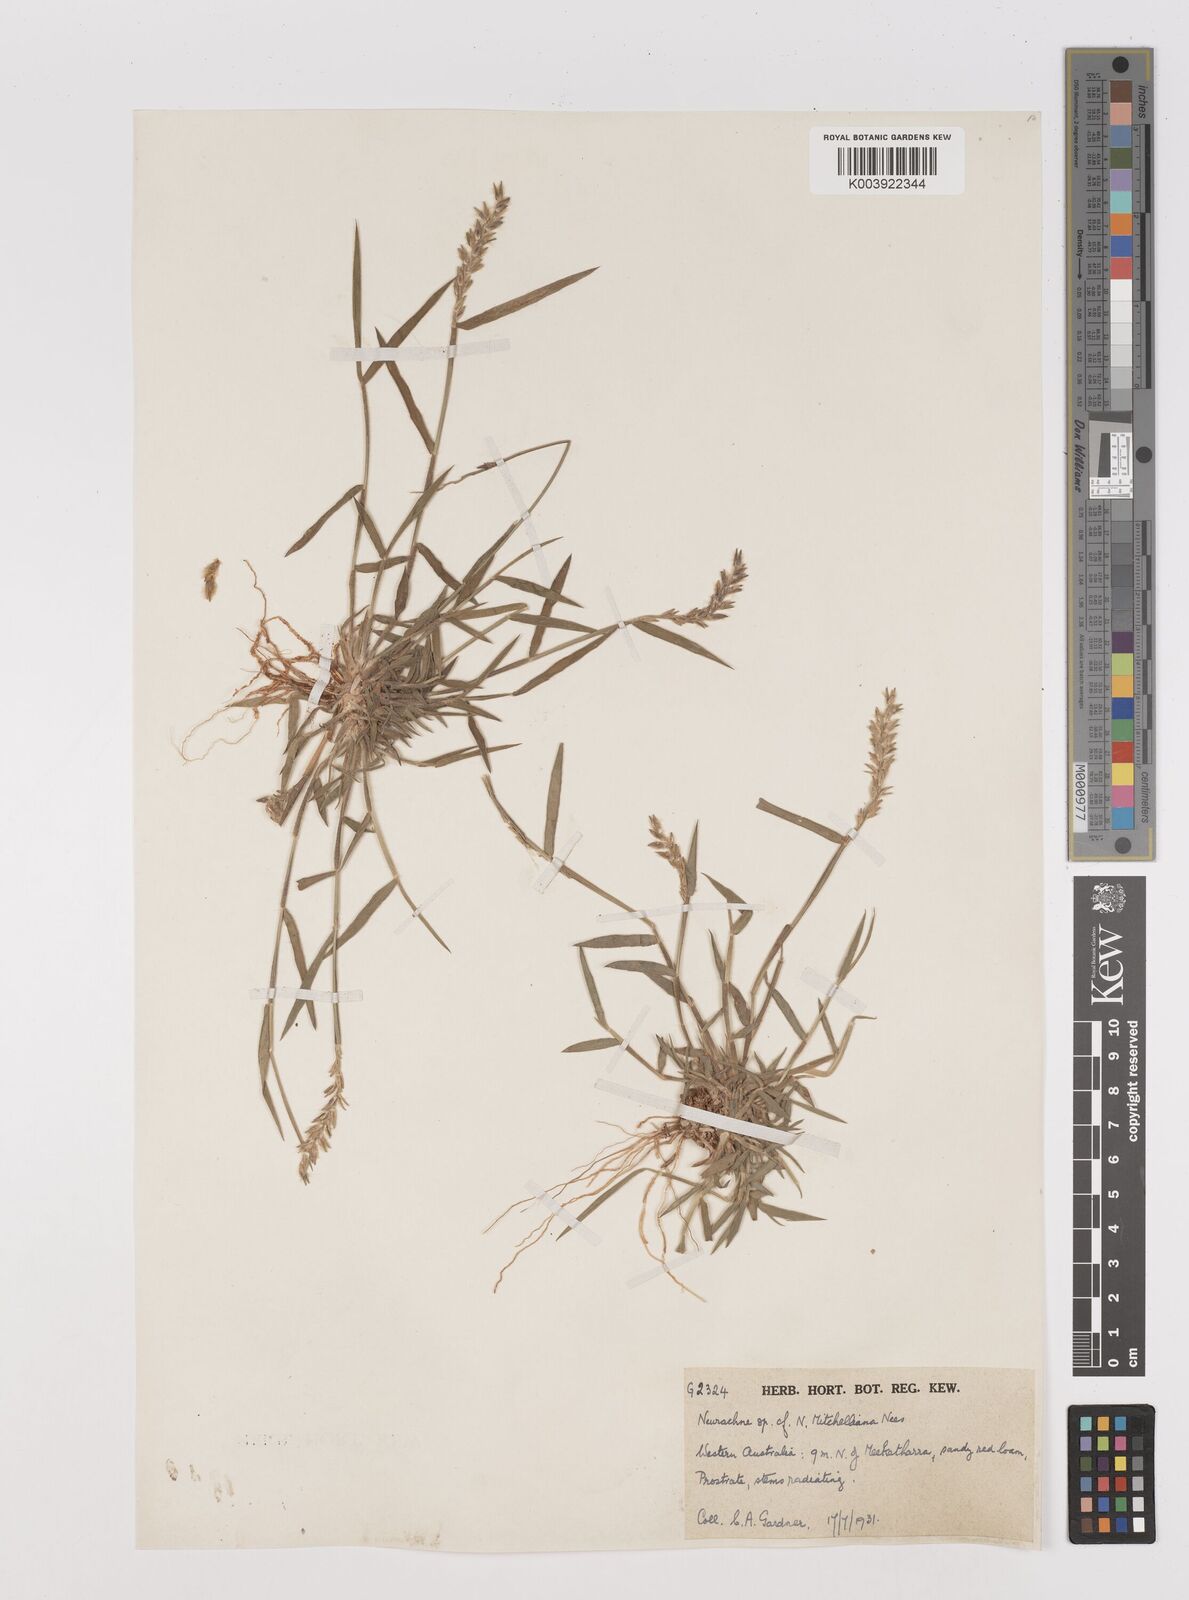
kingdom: Plantae
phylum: Tracheophyta
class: Liliopsida
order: Poales
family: Poaceae
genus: Thyridolepis
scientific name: Thyridolepis mitchelliana
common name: Rock tassel grass
